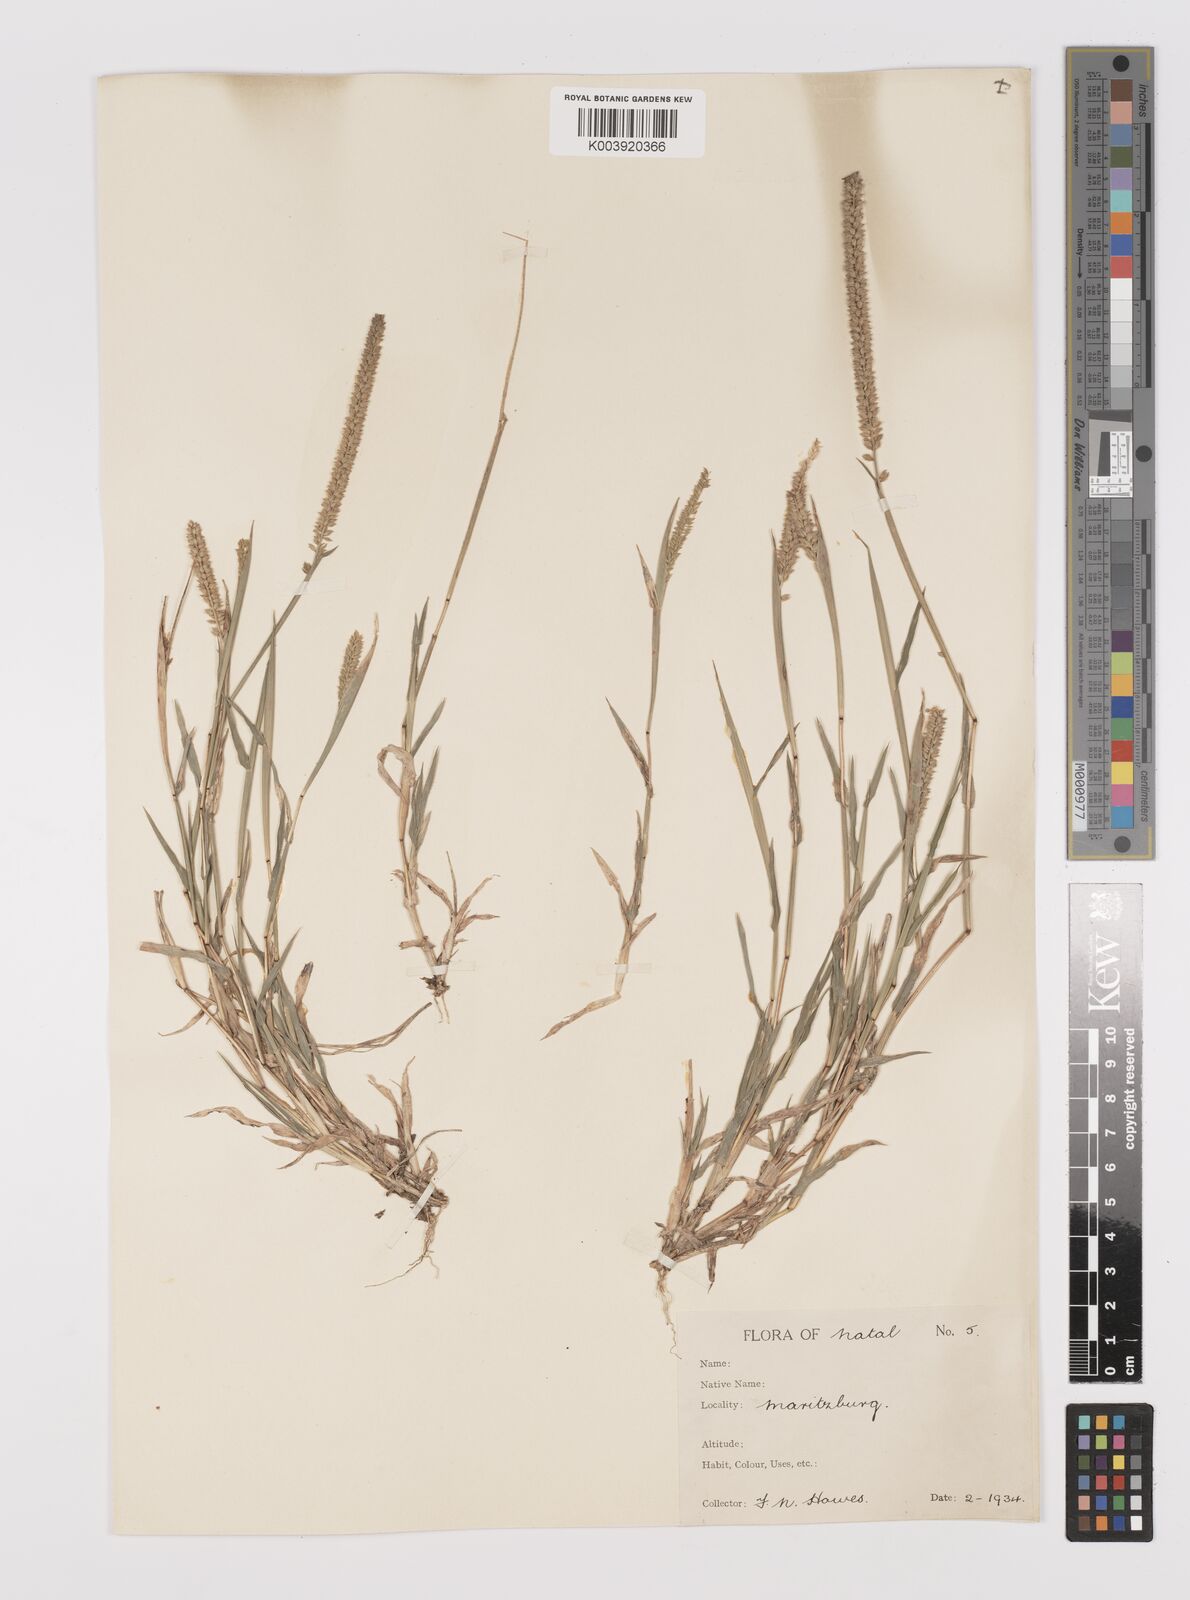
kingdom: Plantae
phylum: Tracheophyta
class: Liliopsida
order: Poales
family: Poaceae
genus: Tragus
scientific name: Tragus berteronianus
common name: African bur-grass
